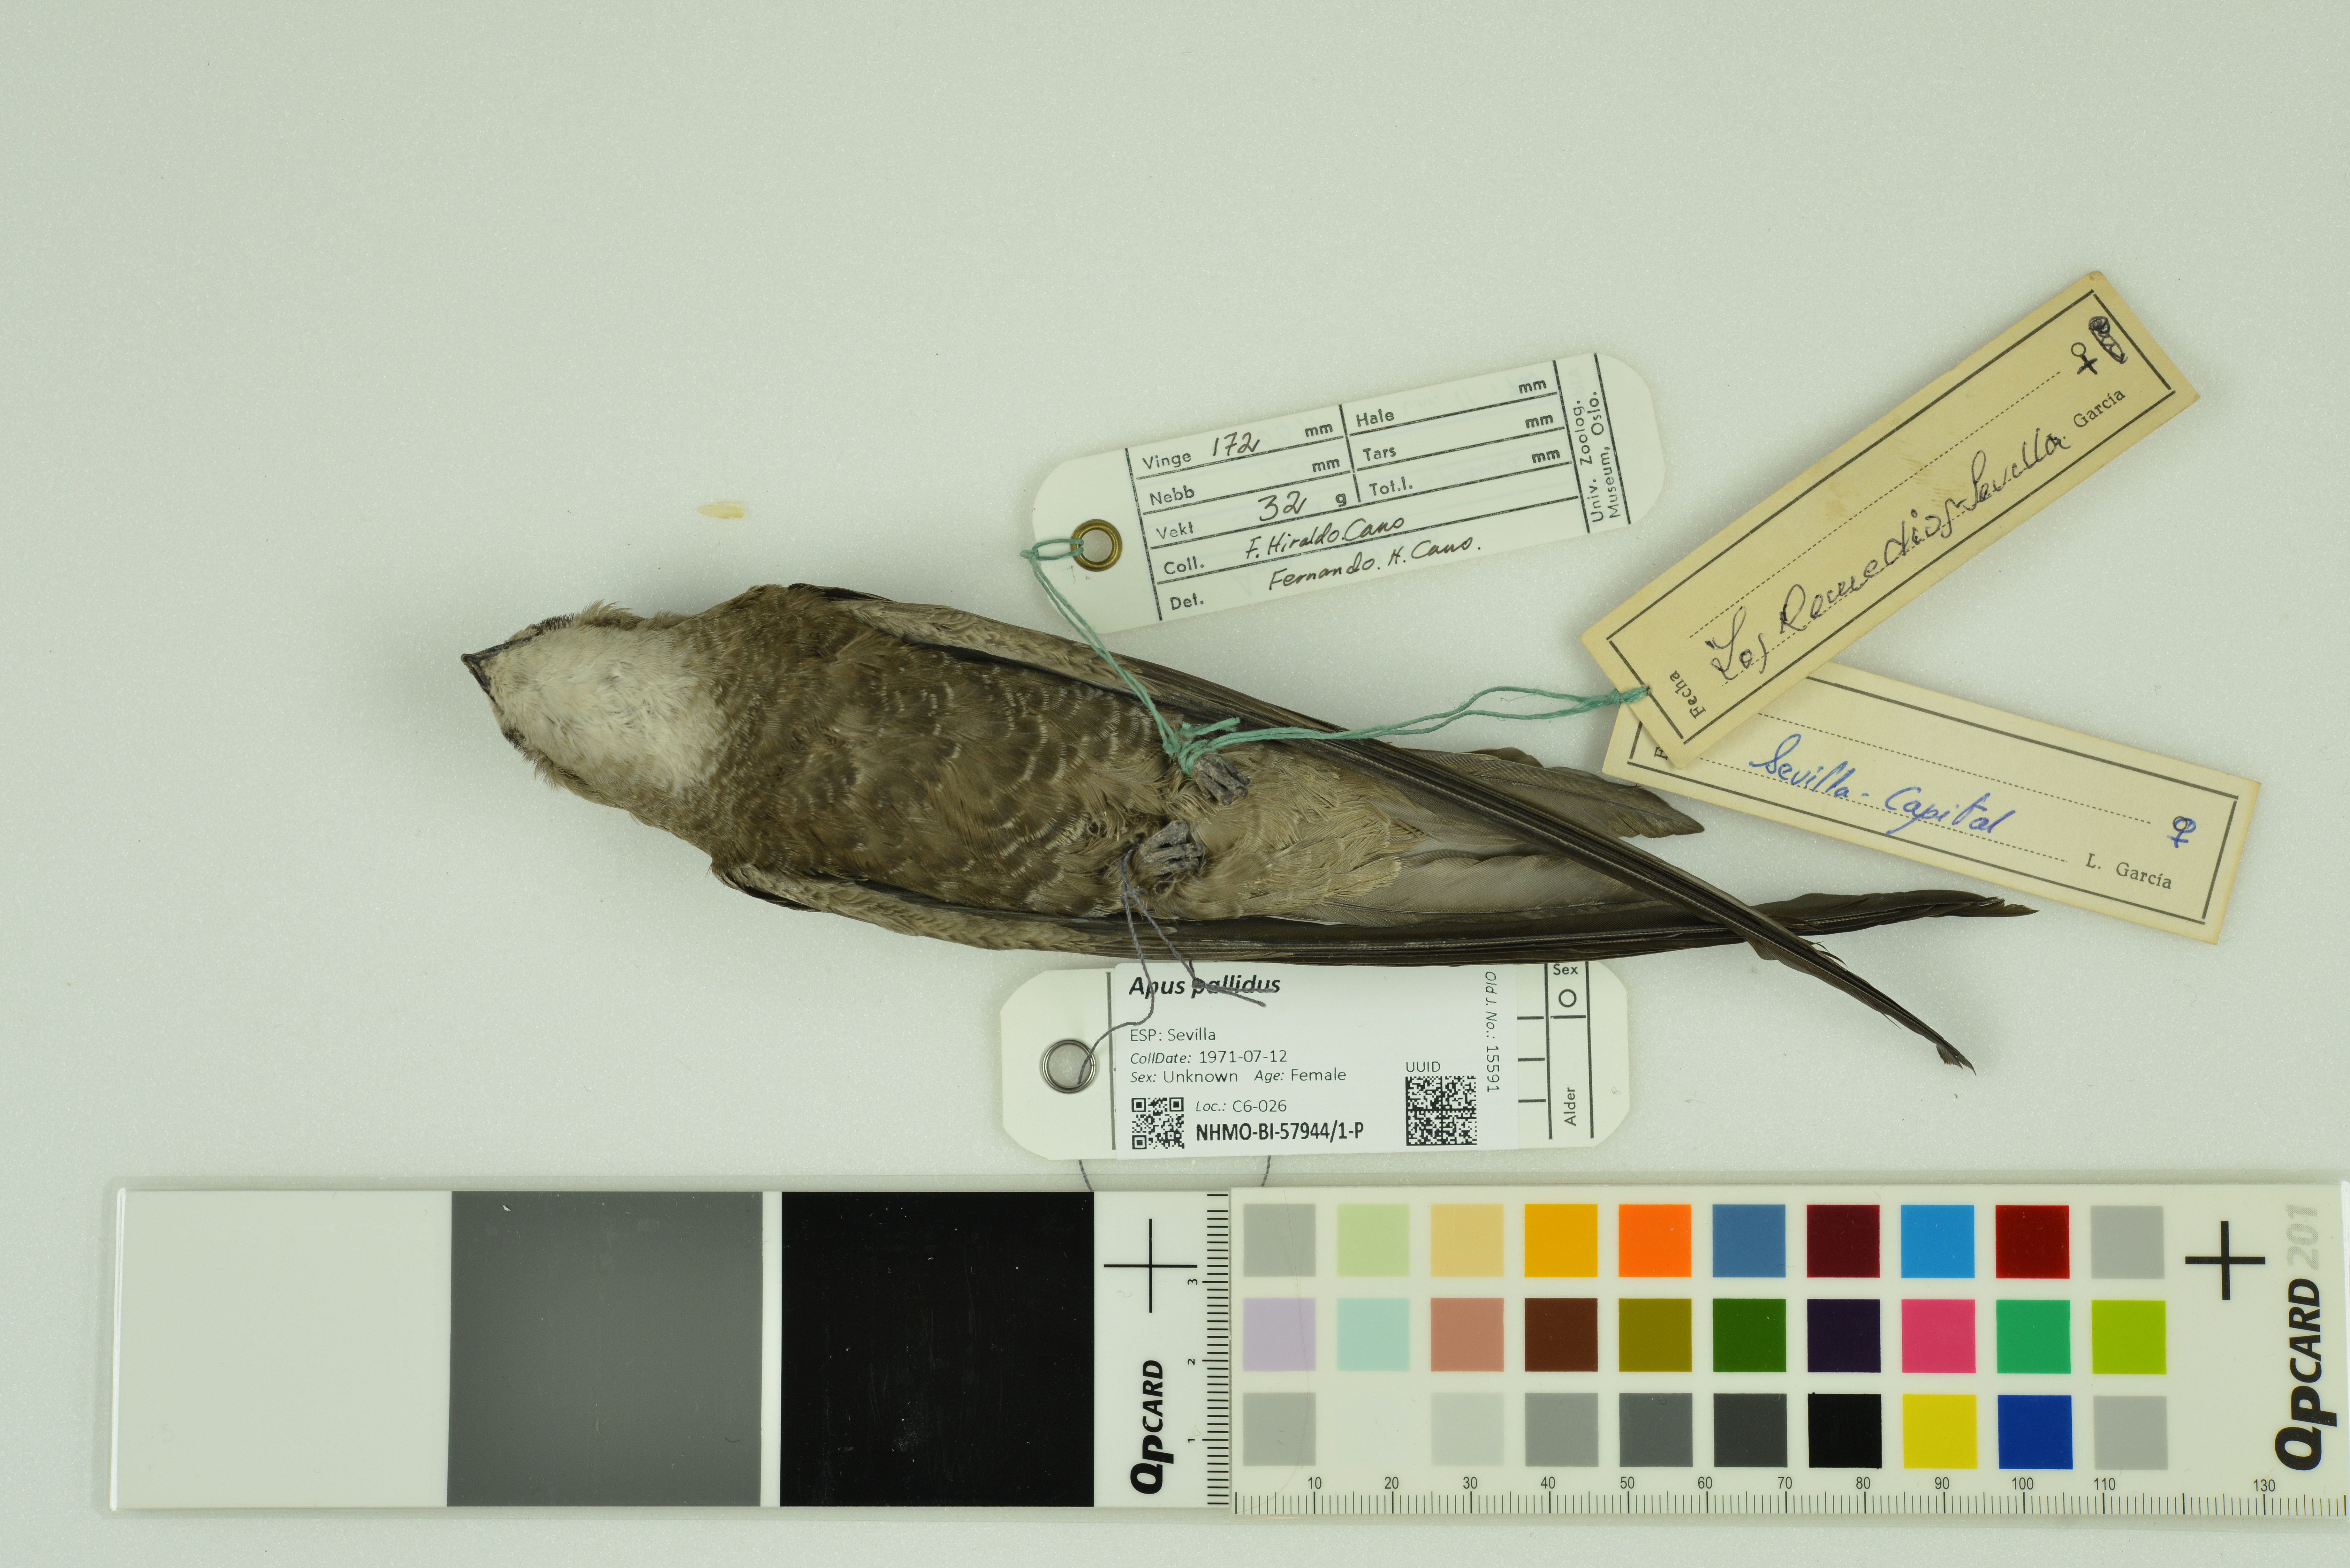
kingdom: Animalia
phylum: Chordata
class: Aves
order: Apodiformes
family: Apodidae
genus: Apus
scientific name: Apus pallidus
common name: Pallid swift
